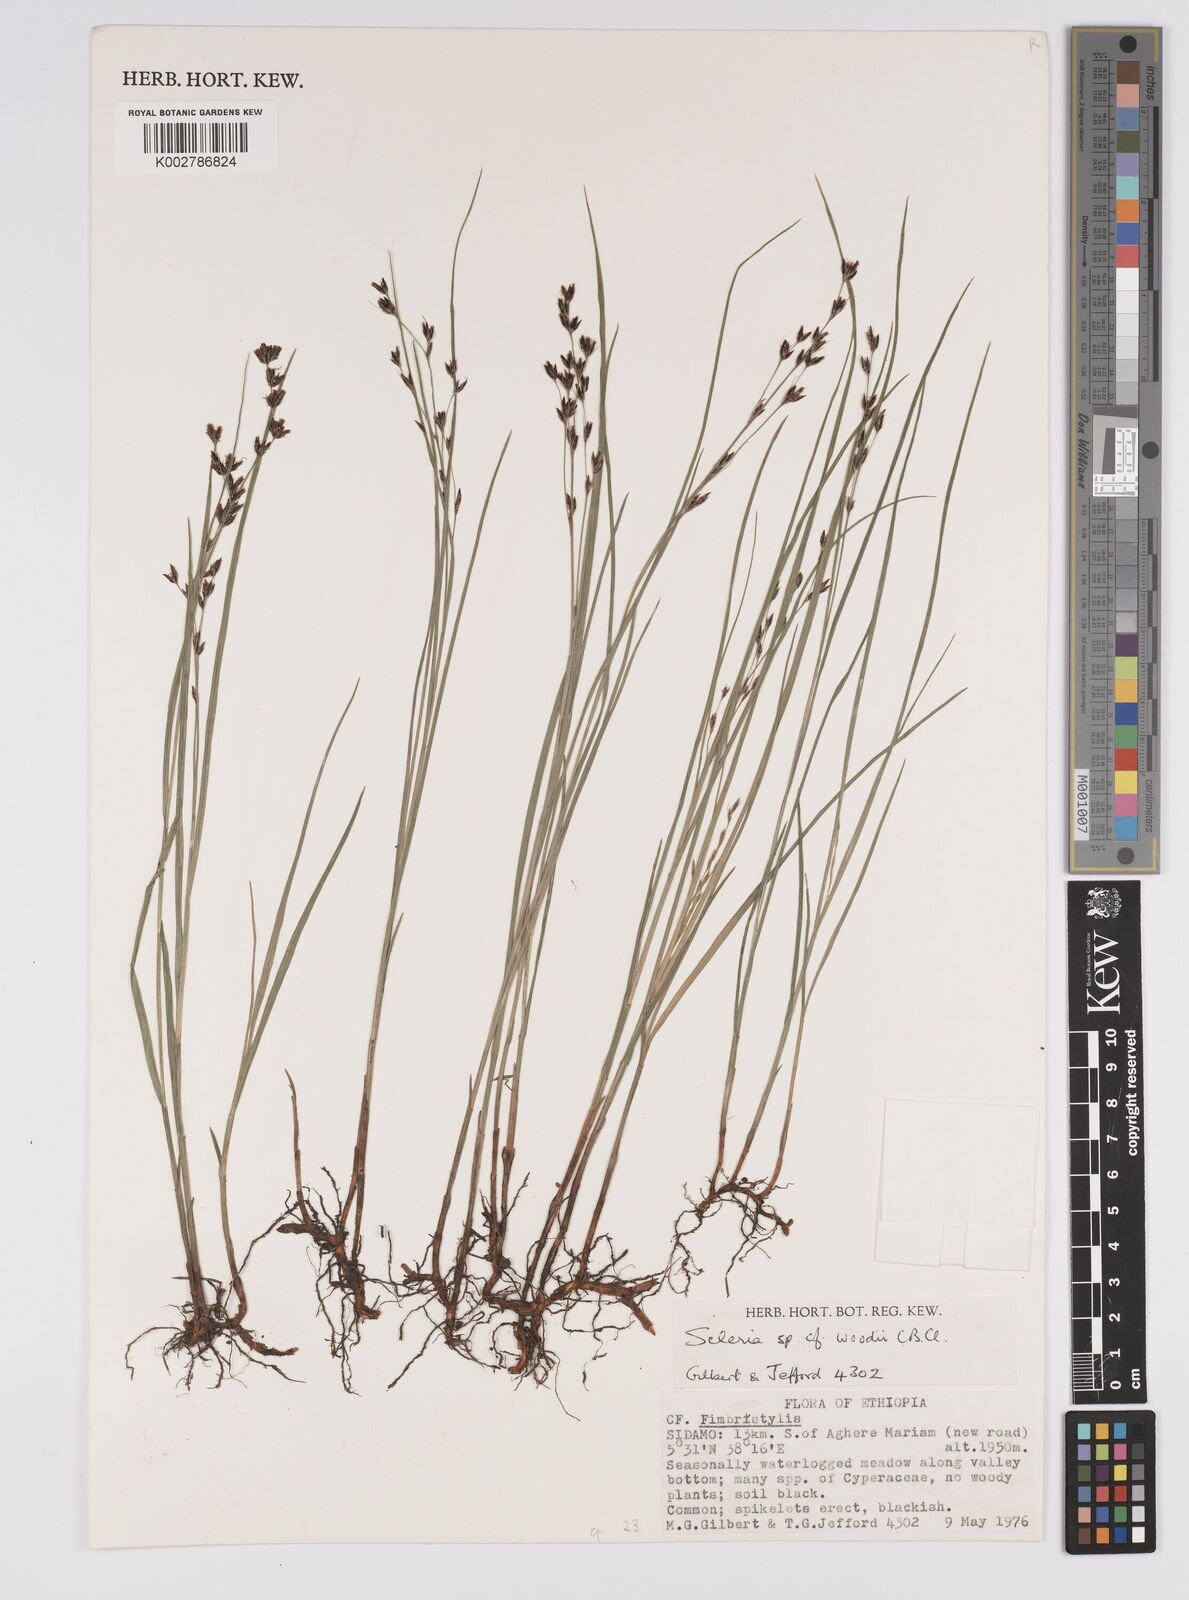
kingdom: Plantae
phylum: Tracheophyta
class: Liliopsida
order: Poales
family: Cyperaceae
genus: Scleria
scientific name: Scleria woodii
